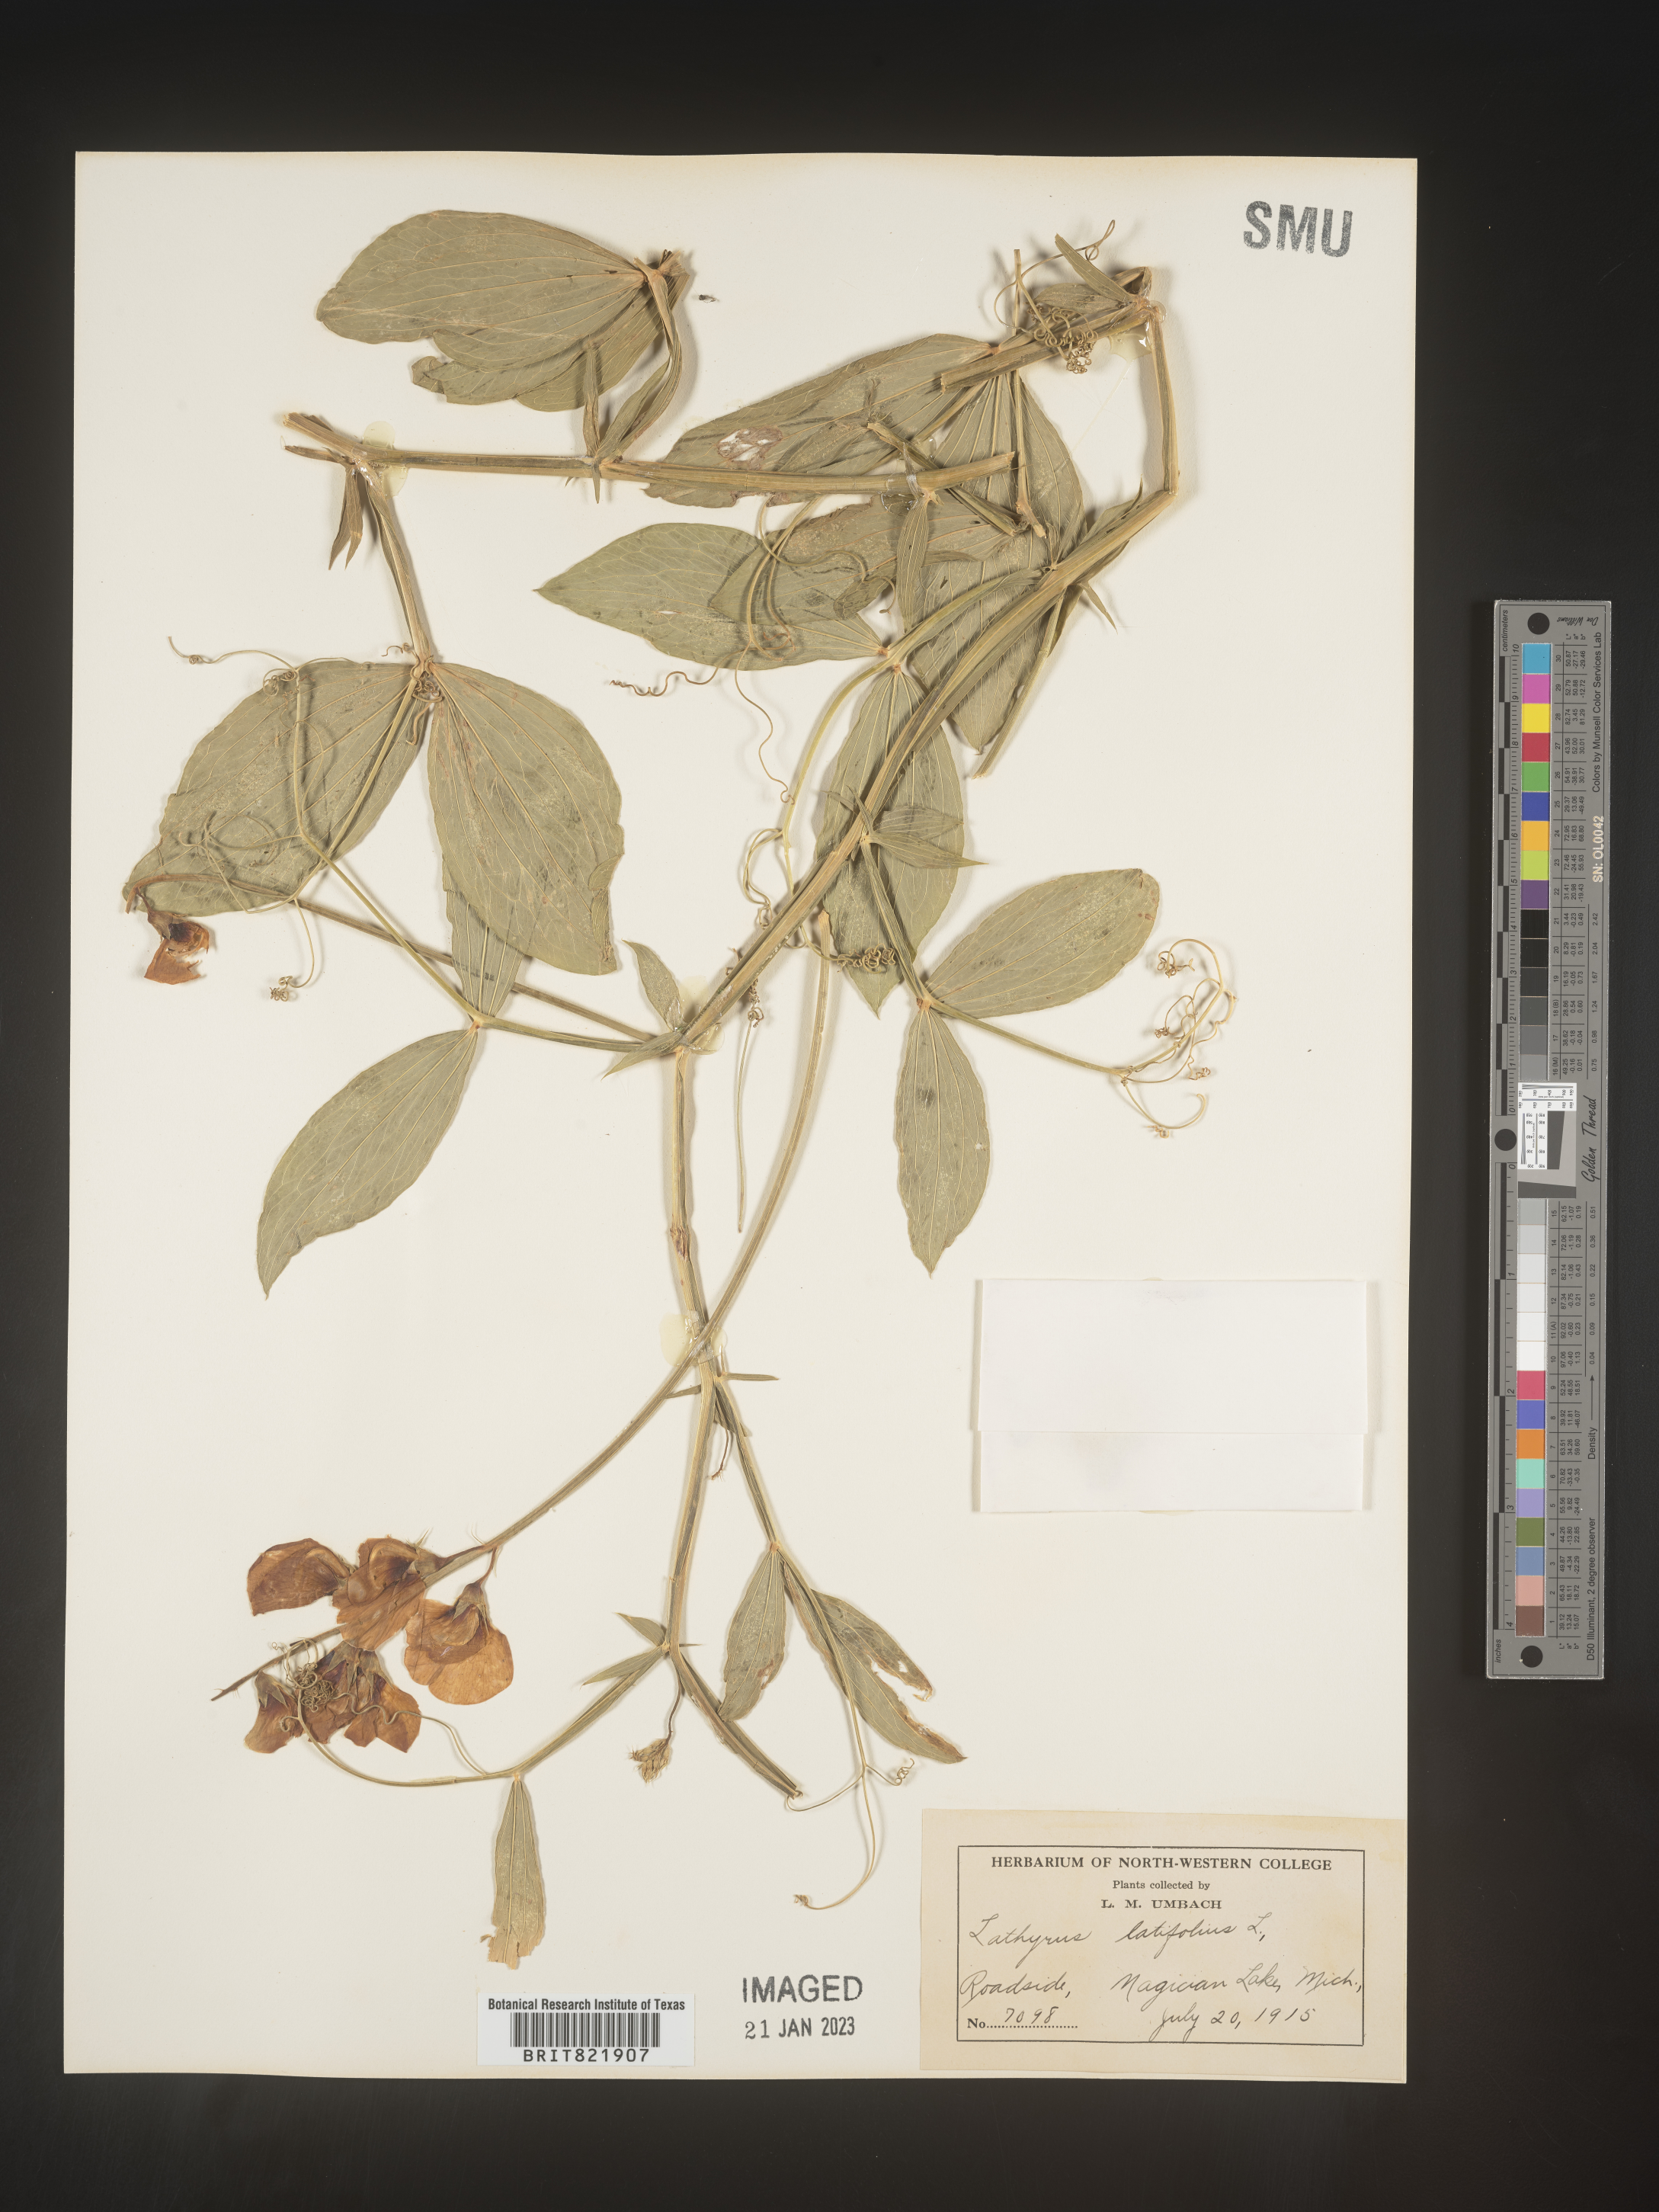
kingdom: Plantae
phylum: Tracheophyta
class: Magnoliopsida
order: Fabales
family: Fabaceae
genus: Lathyrus
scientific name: Lathyrus latifolius
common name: Perennial pea
